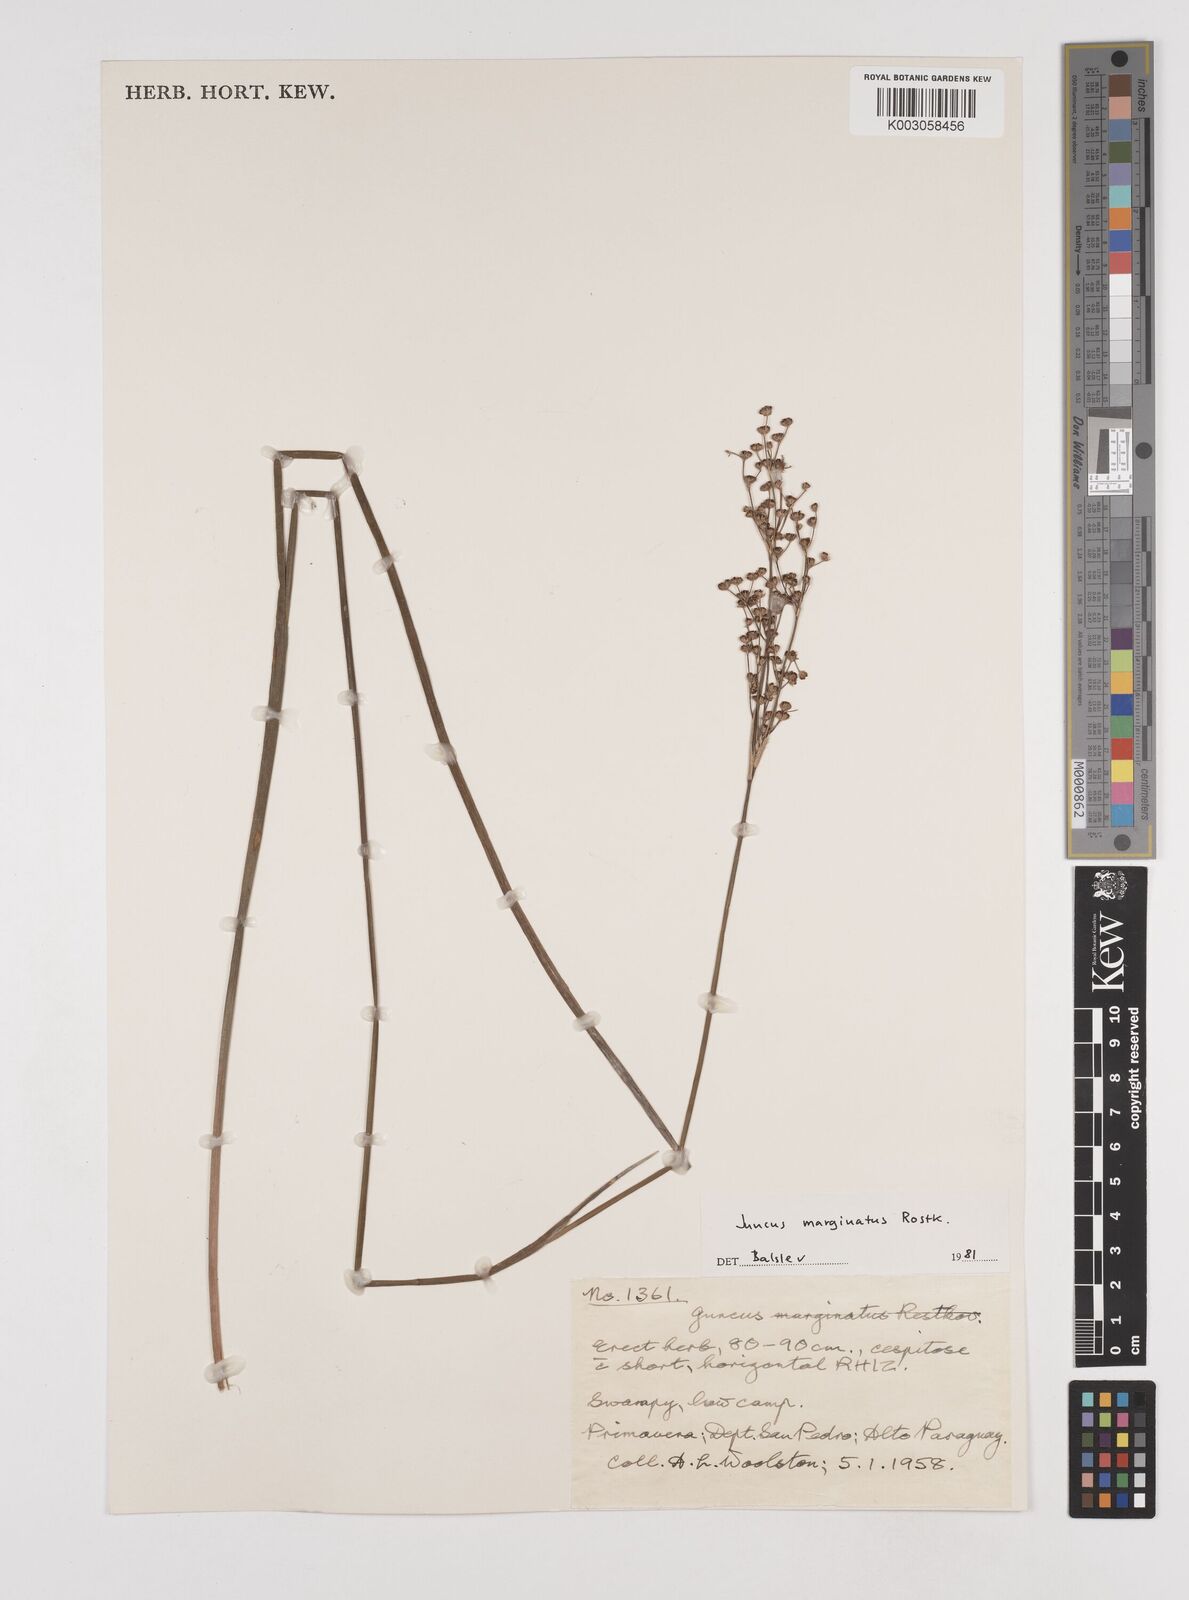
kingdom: Plantae
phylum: Tracheophyta
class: Liliopsida
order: Poales
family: Juncaceae
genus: Juncus
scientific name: Juncus marginatus
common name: Grass-leaf rush
